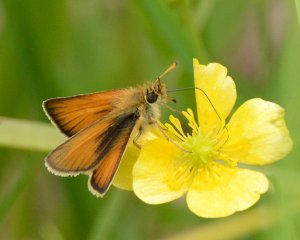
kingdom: Animalia
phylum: Arthropoda
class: Insecta
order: Lepidoptera
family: Hesperiidae
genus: Thymelicus
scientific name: Thymelicus lineola
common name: European Skipper
